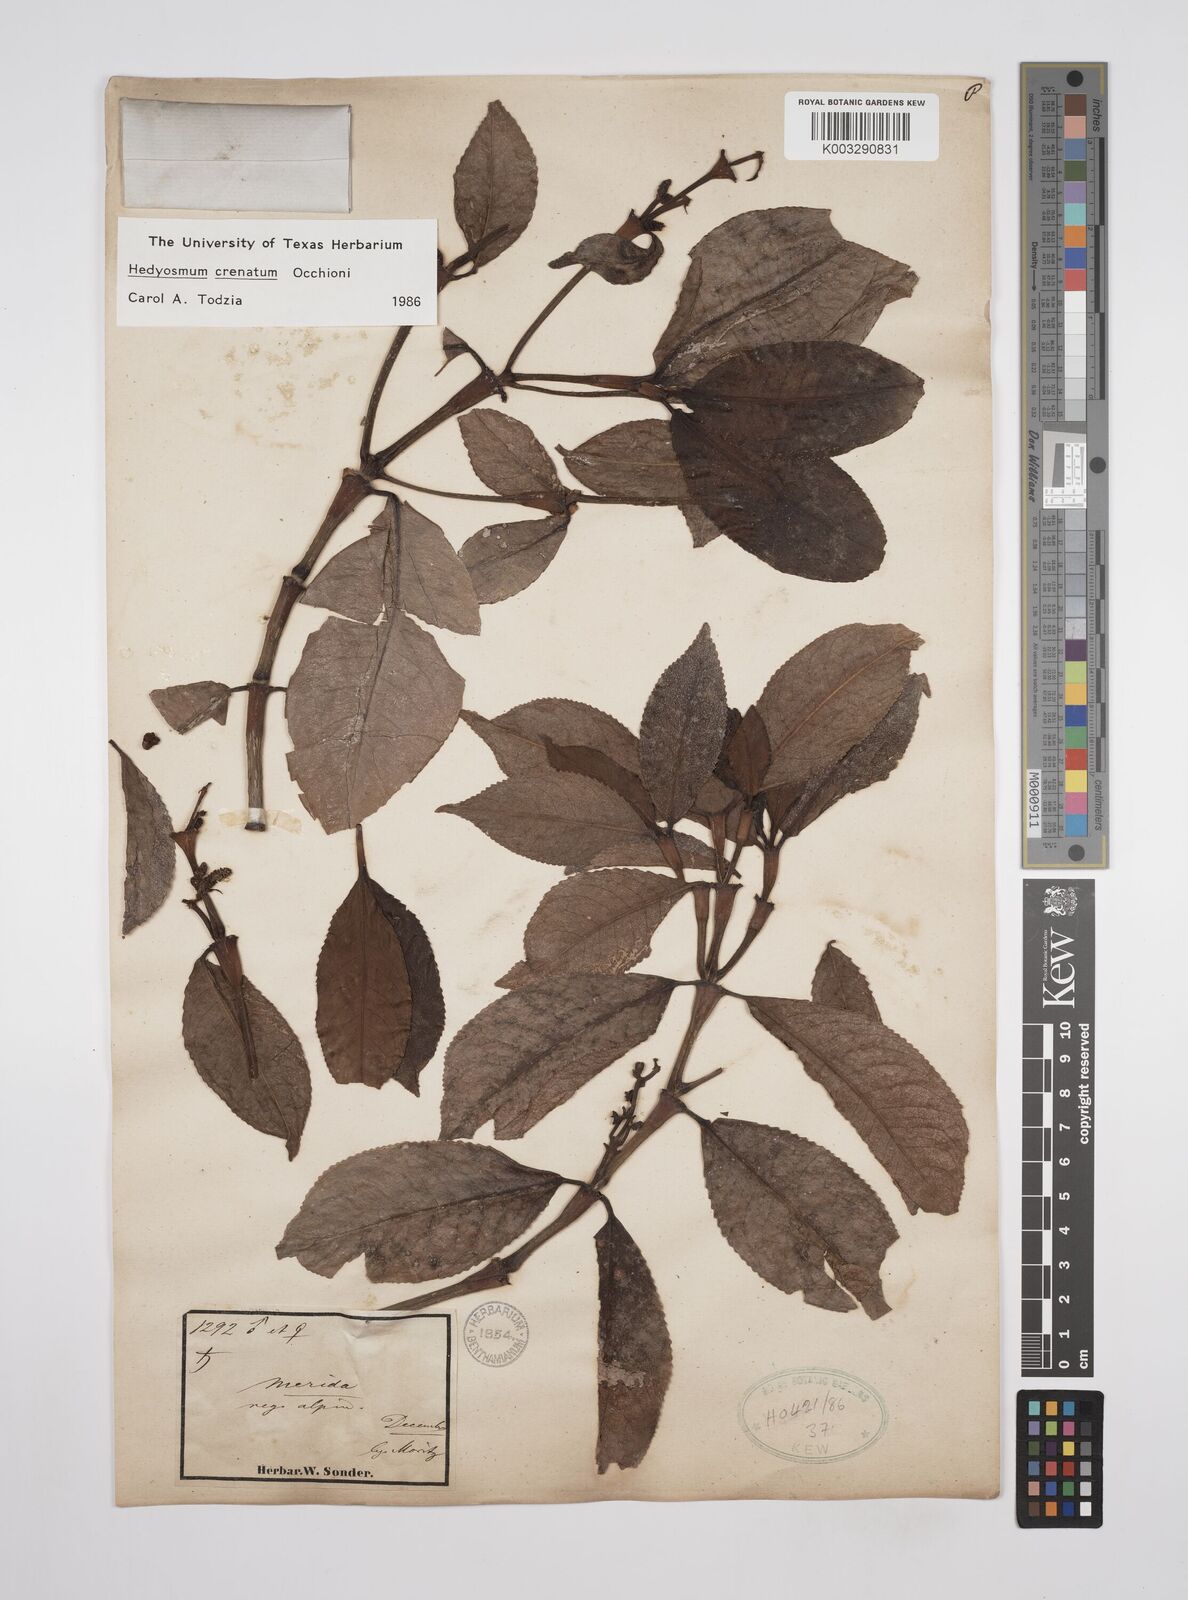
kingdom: Plantae
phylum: Tracheophyta
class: Magnoliopsida
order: Chloranthales
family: Chloranthaceae
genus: Hedyosmum
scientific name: Hedyosmum crenatum
